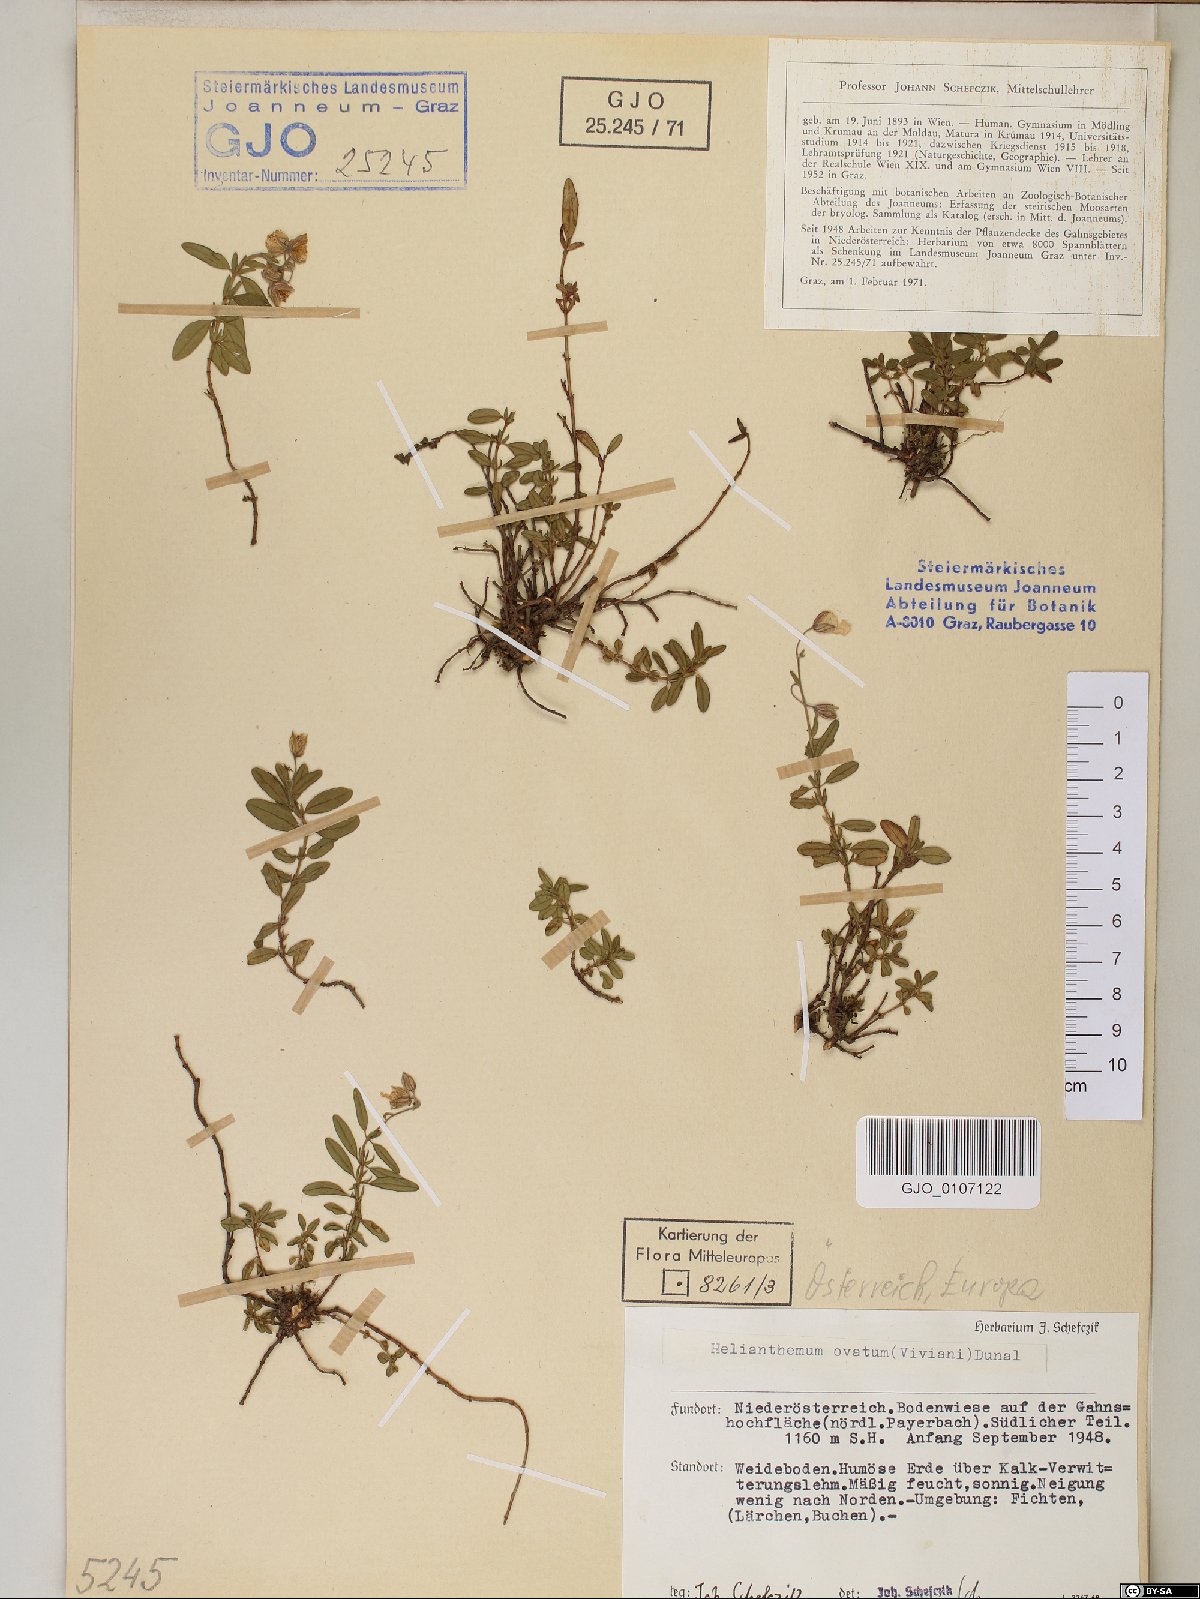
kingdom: Plantae
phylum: Tracheophyta
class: Magnoliopsida
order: Malvales
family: Cistaceae
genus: Helianthemum
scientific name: Helianthemum nummularium
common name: Common rock-rose
